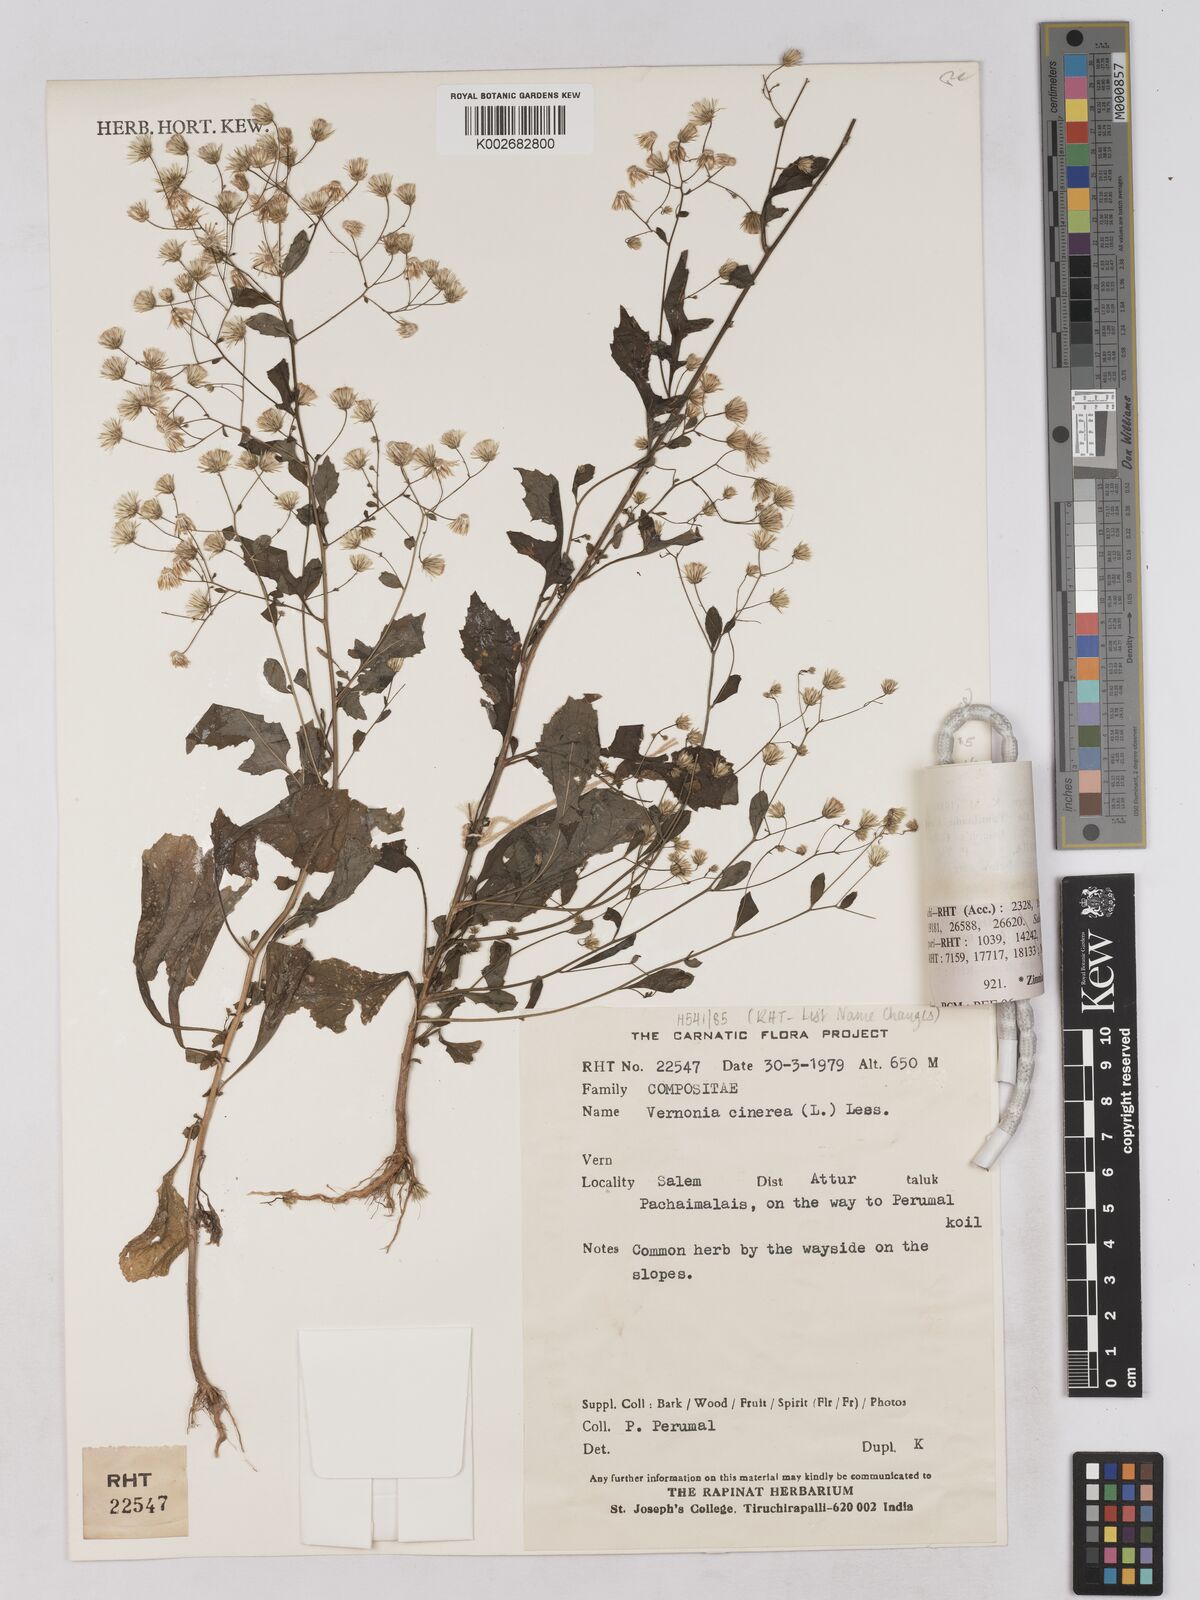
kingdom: Plantae
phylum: Tracheophyta
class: Magnoliopsida
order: Asterales
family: Asteraceae
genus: Cyanthillium
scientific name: Cyanthillium cinereum
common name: Little ironweed
